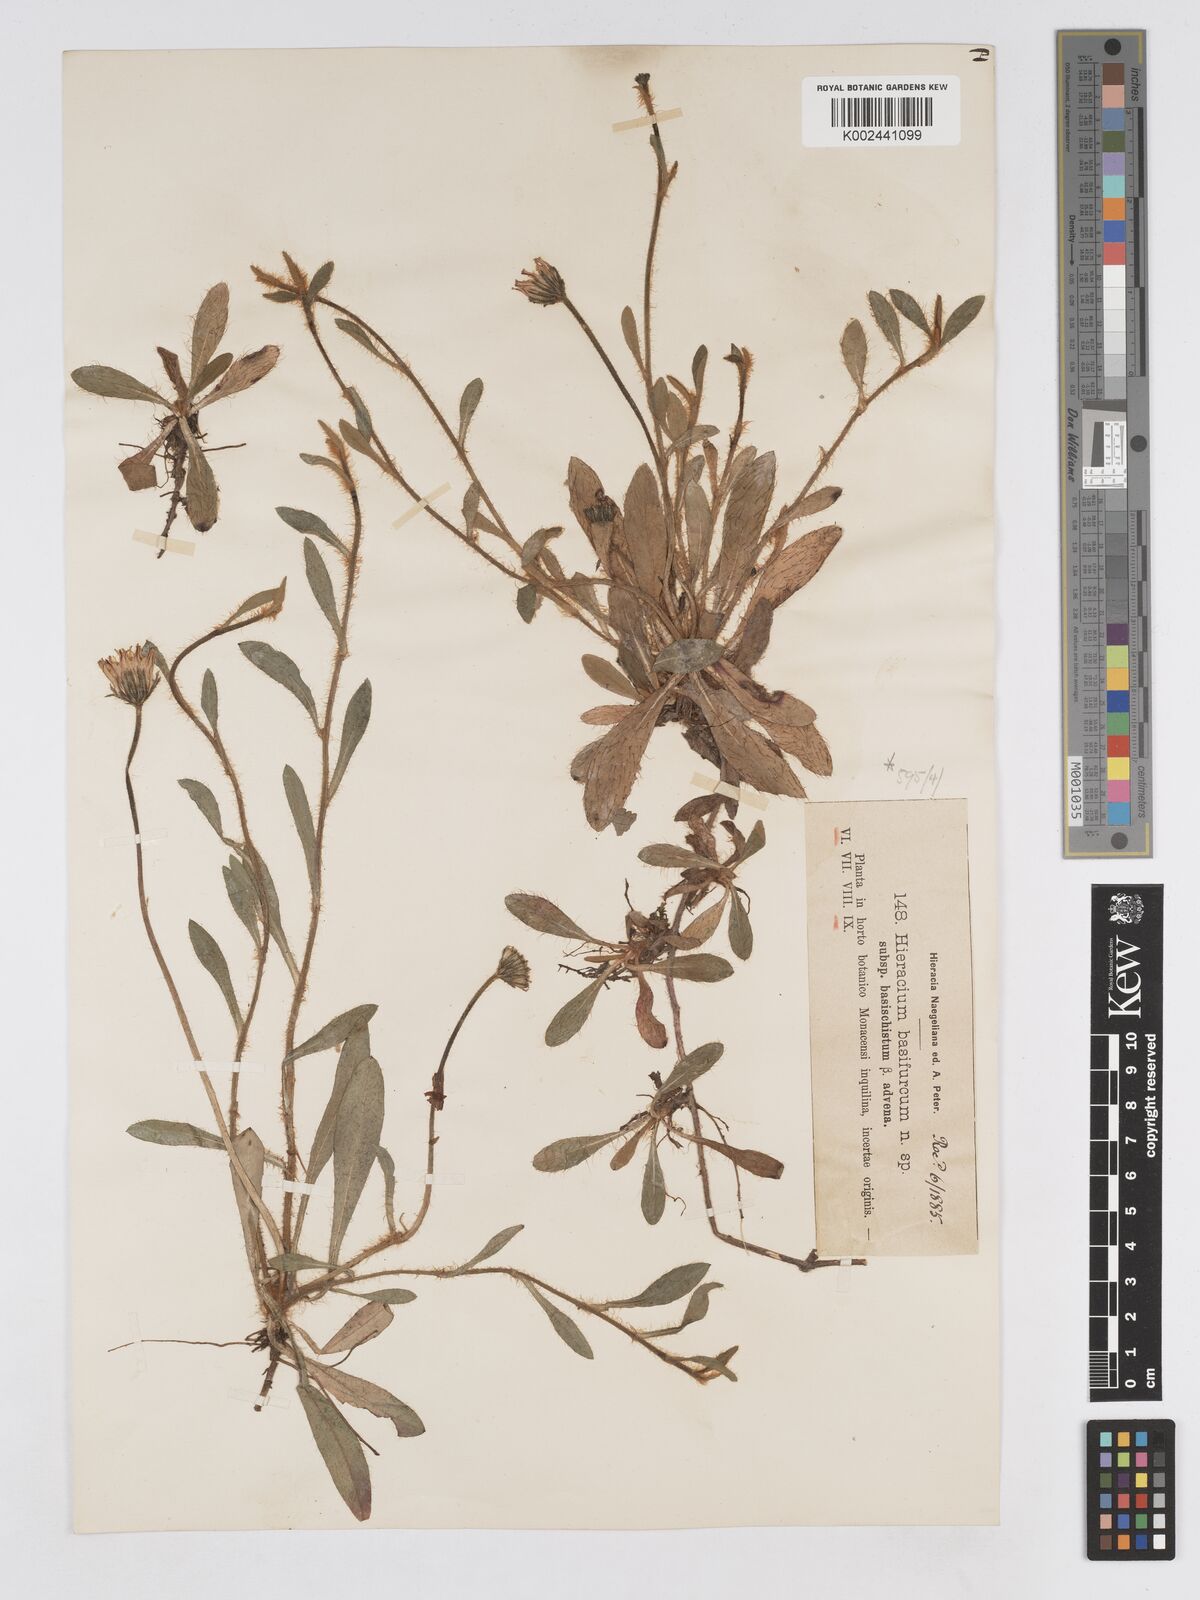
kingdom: Plantae
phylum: Tracheophyta
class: Magnoliopsida
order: Asterales
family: Asteraceae
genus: Pilosella
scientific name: Pilosella basifurca
